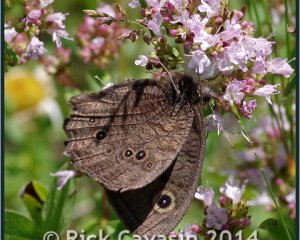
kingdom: Animalia
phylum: Arthropoda
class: Insecta
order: Lepidoptera
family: Nymphalidae
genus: Cercyonis
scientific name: Cercyonis pegala
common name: Common Wood-Nymph
